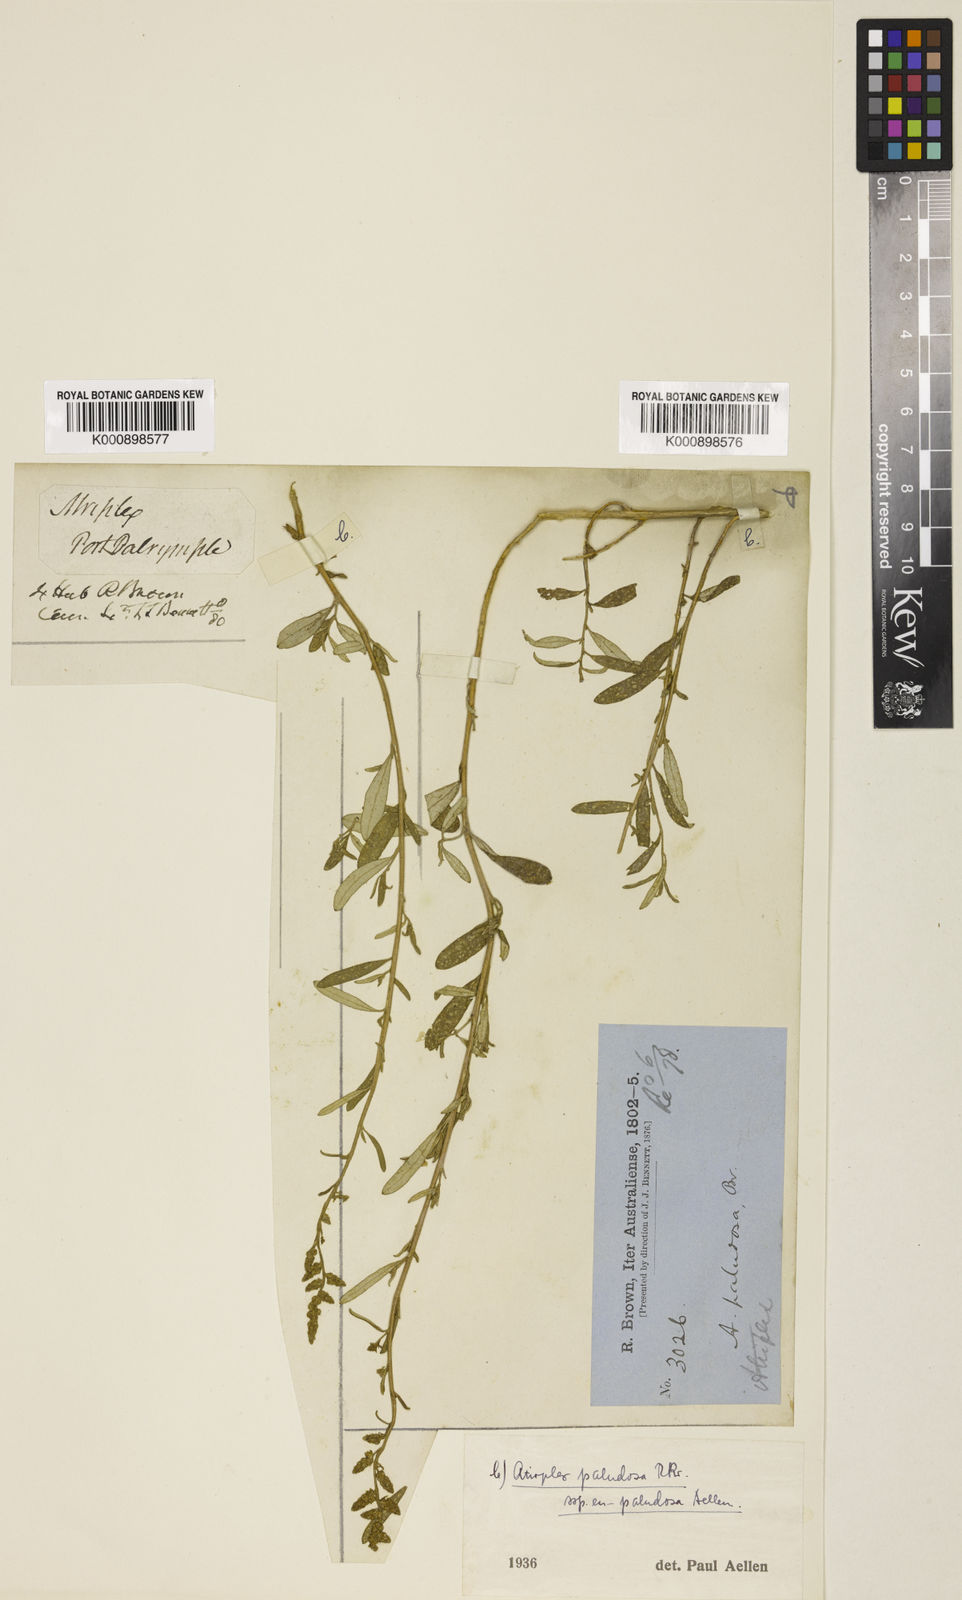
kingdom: Plantae
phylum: Tracheophyta
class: Magnoliopsida
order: Caryophyllales
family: Amaranthaceae
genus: Atriplex
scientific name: Atriplex paludosa
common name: Marsh saltbush
